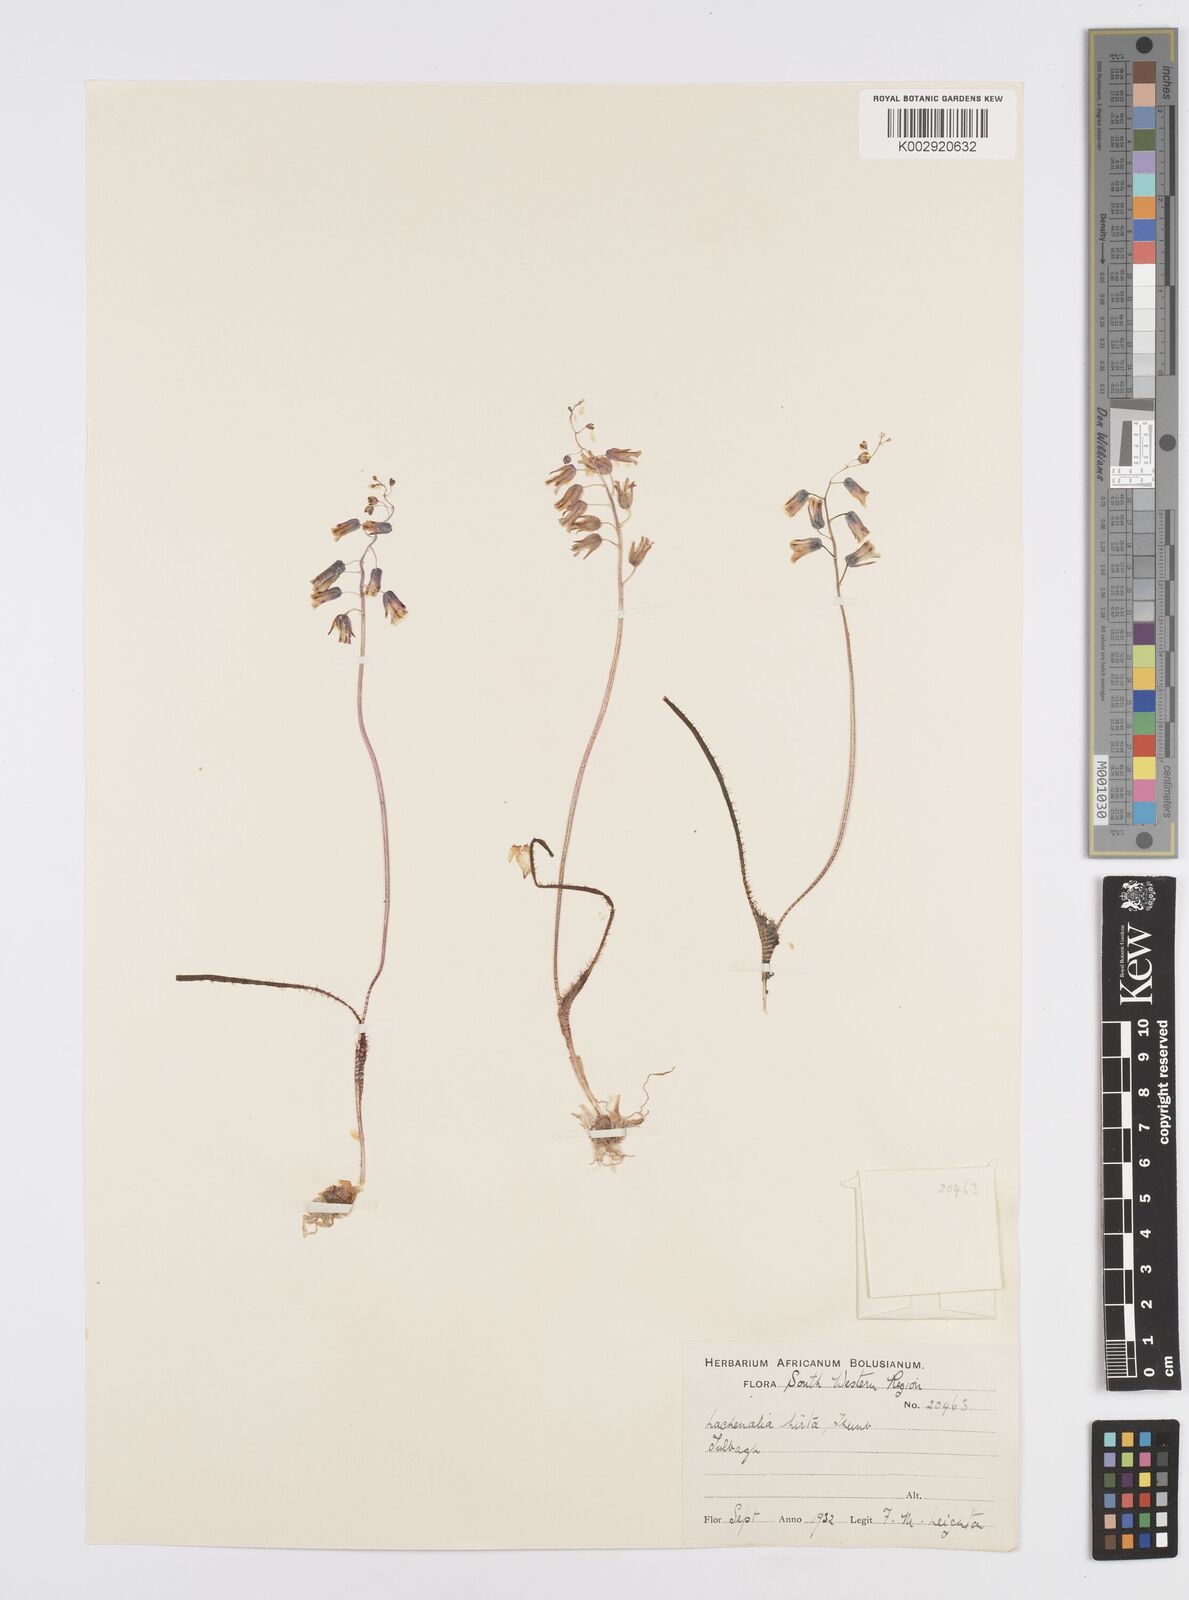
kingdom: Plantae
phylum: Tracheophyta
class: Liliopsida
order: Asparagales
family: Asparagaceae
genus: Lachenalia
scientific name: Lachenalia hirta
